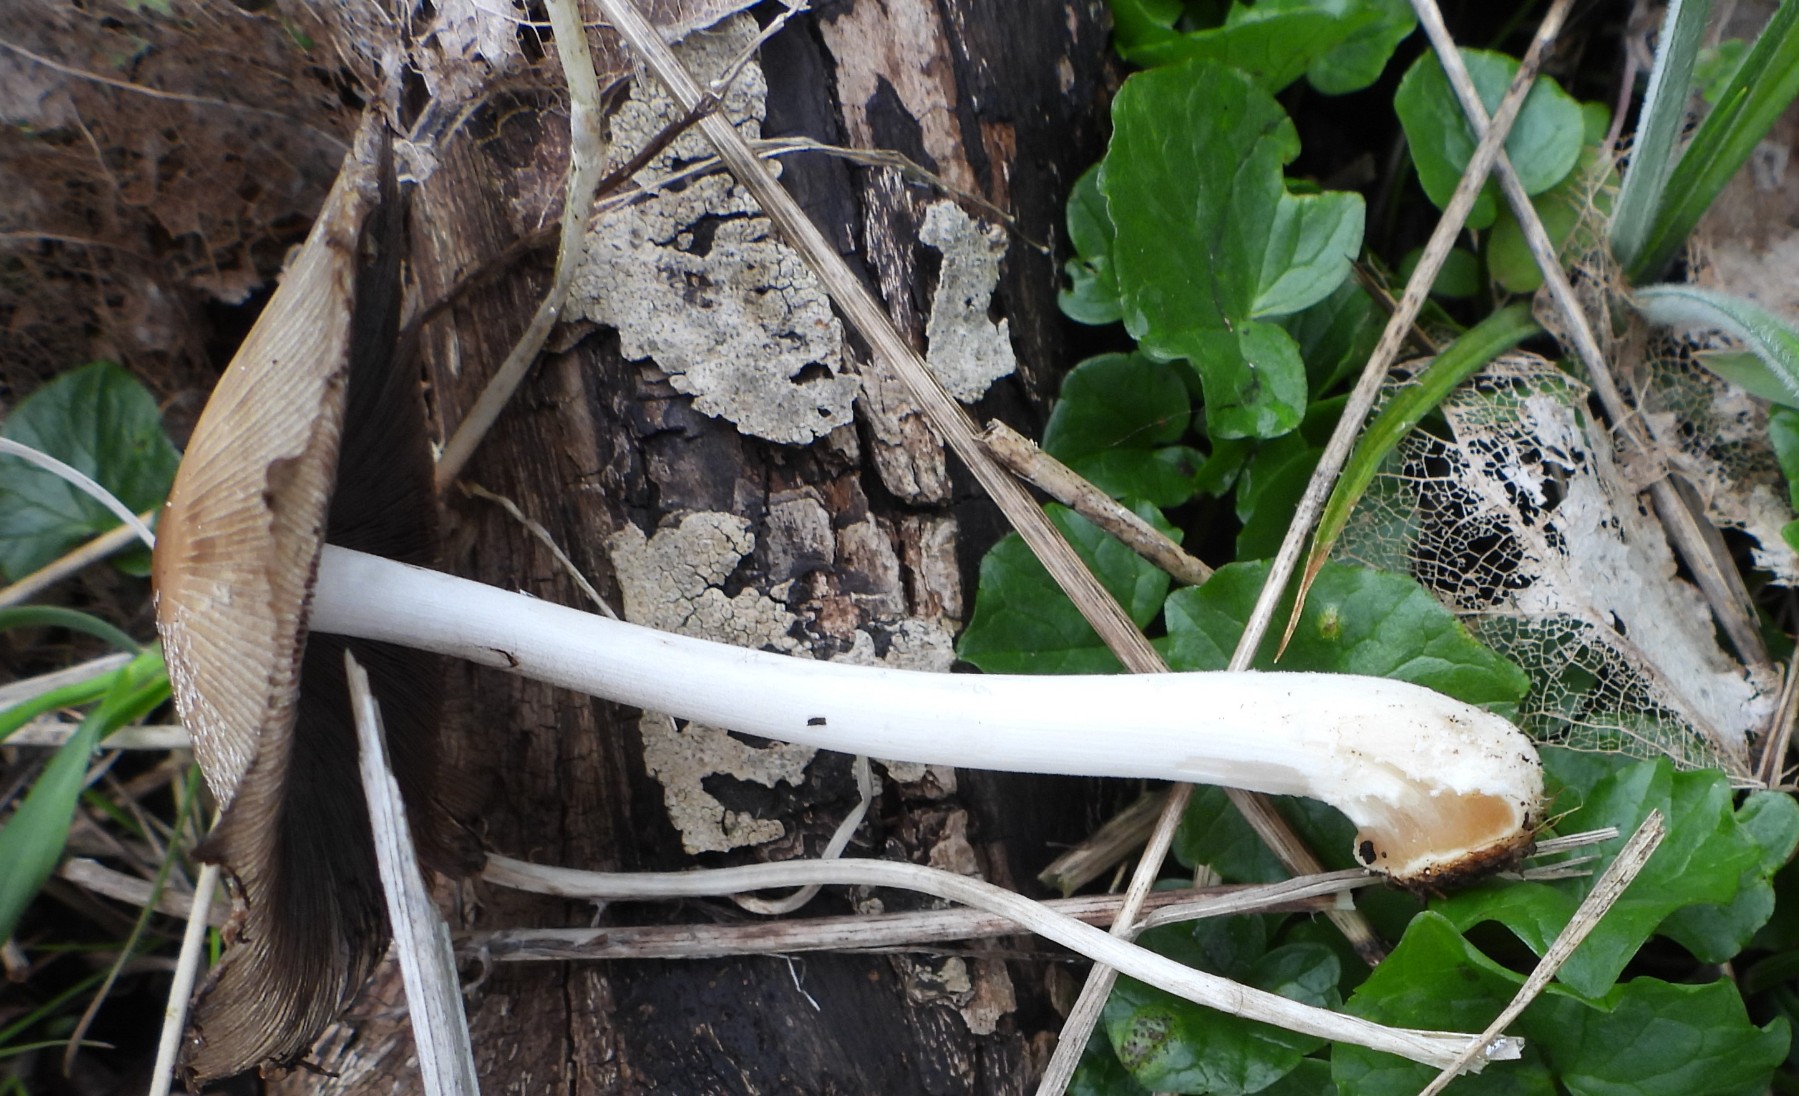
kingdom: Fungi
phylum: Basidiomycota
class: Agaricomycetes
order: Agaricales
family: Psathyrellaceae
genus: Coprinellus
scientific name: Coprinellus
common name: blækhat
